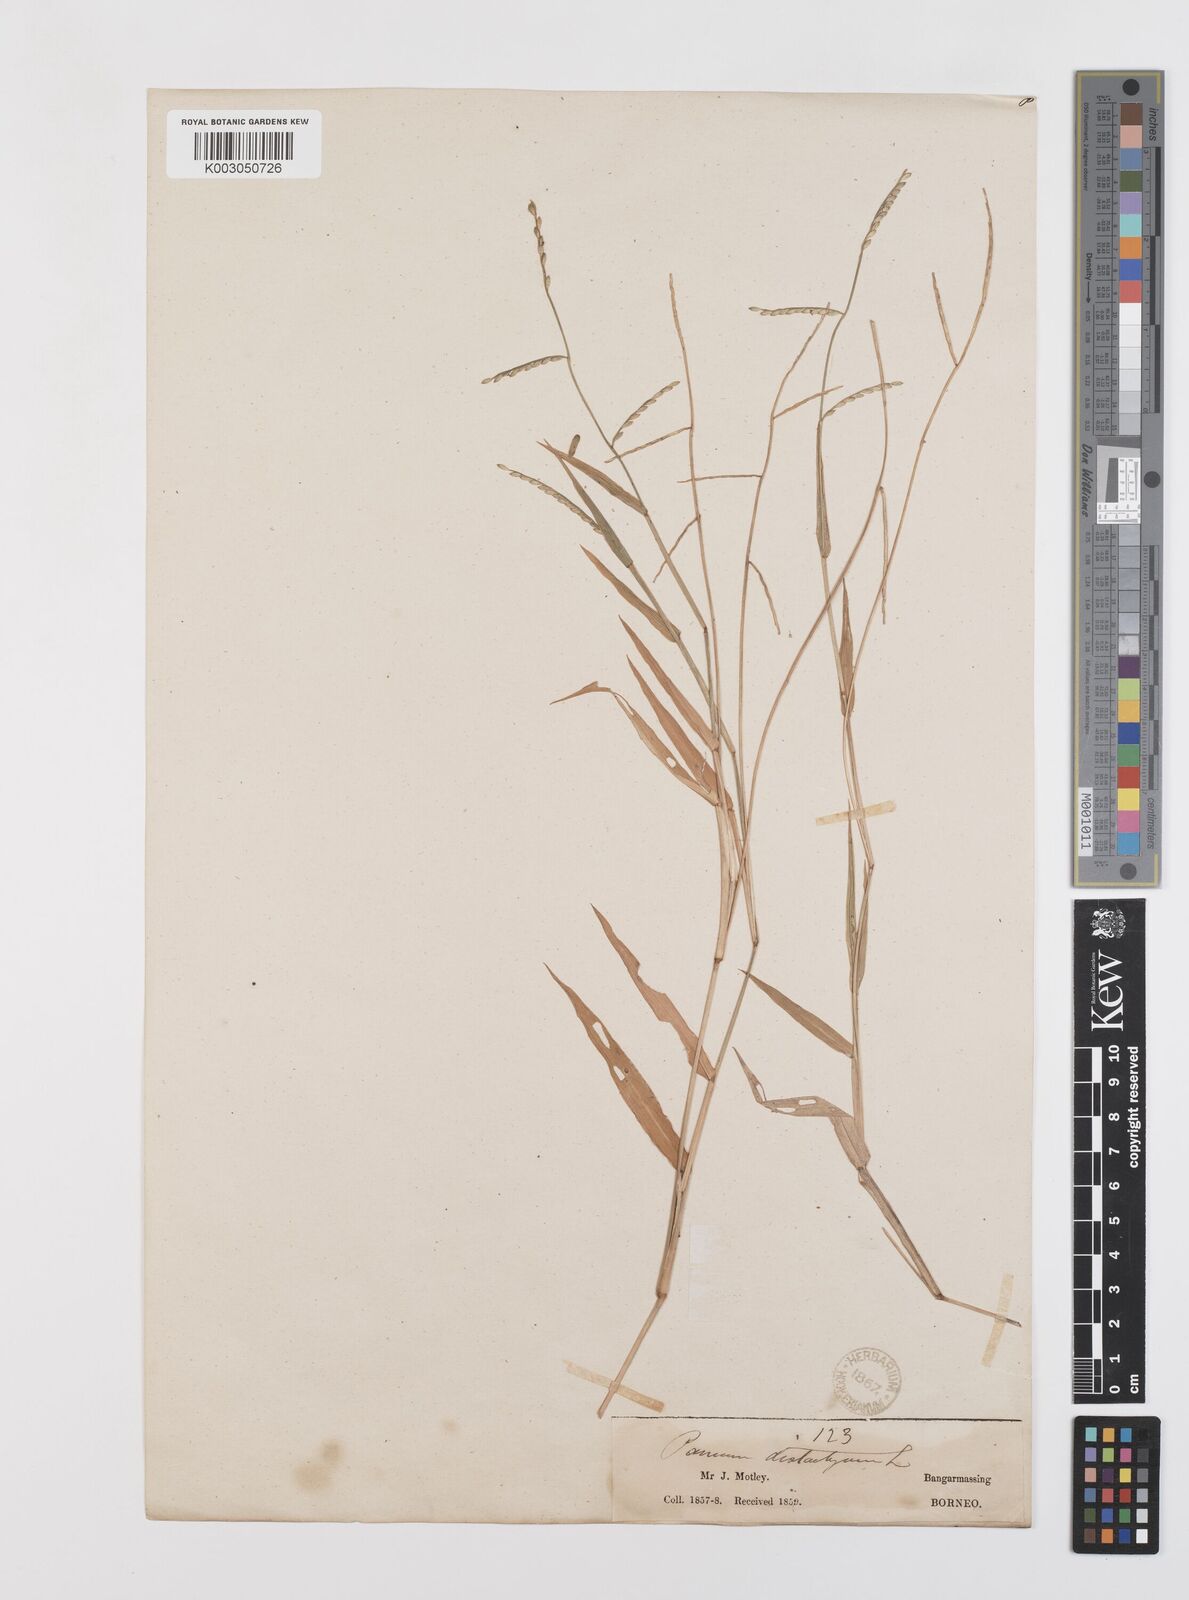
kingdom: Plantae
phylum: Tracheophyta
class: Liliopsida
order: Poales
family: Poaceae
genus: Urochloa
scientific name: Urochloa subquadripara
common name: Armgrass millet
